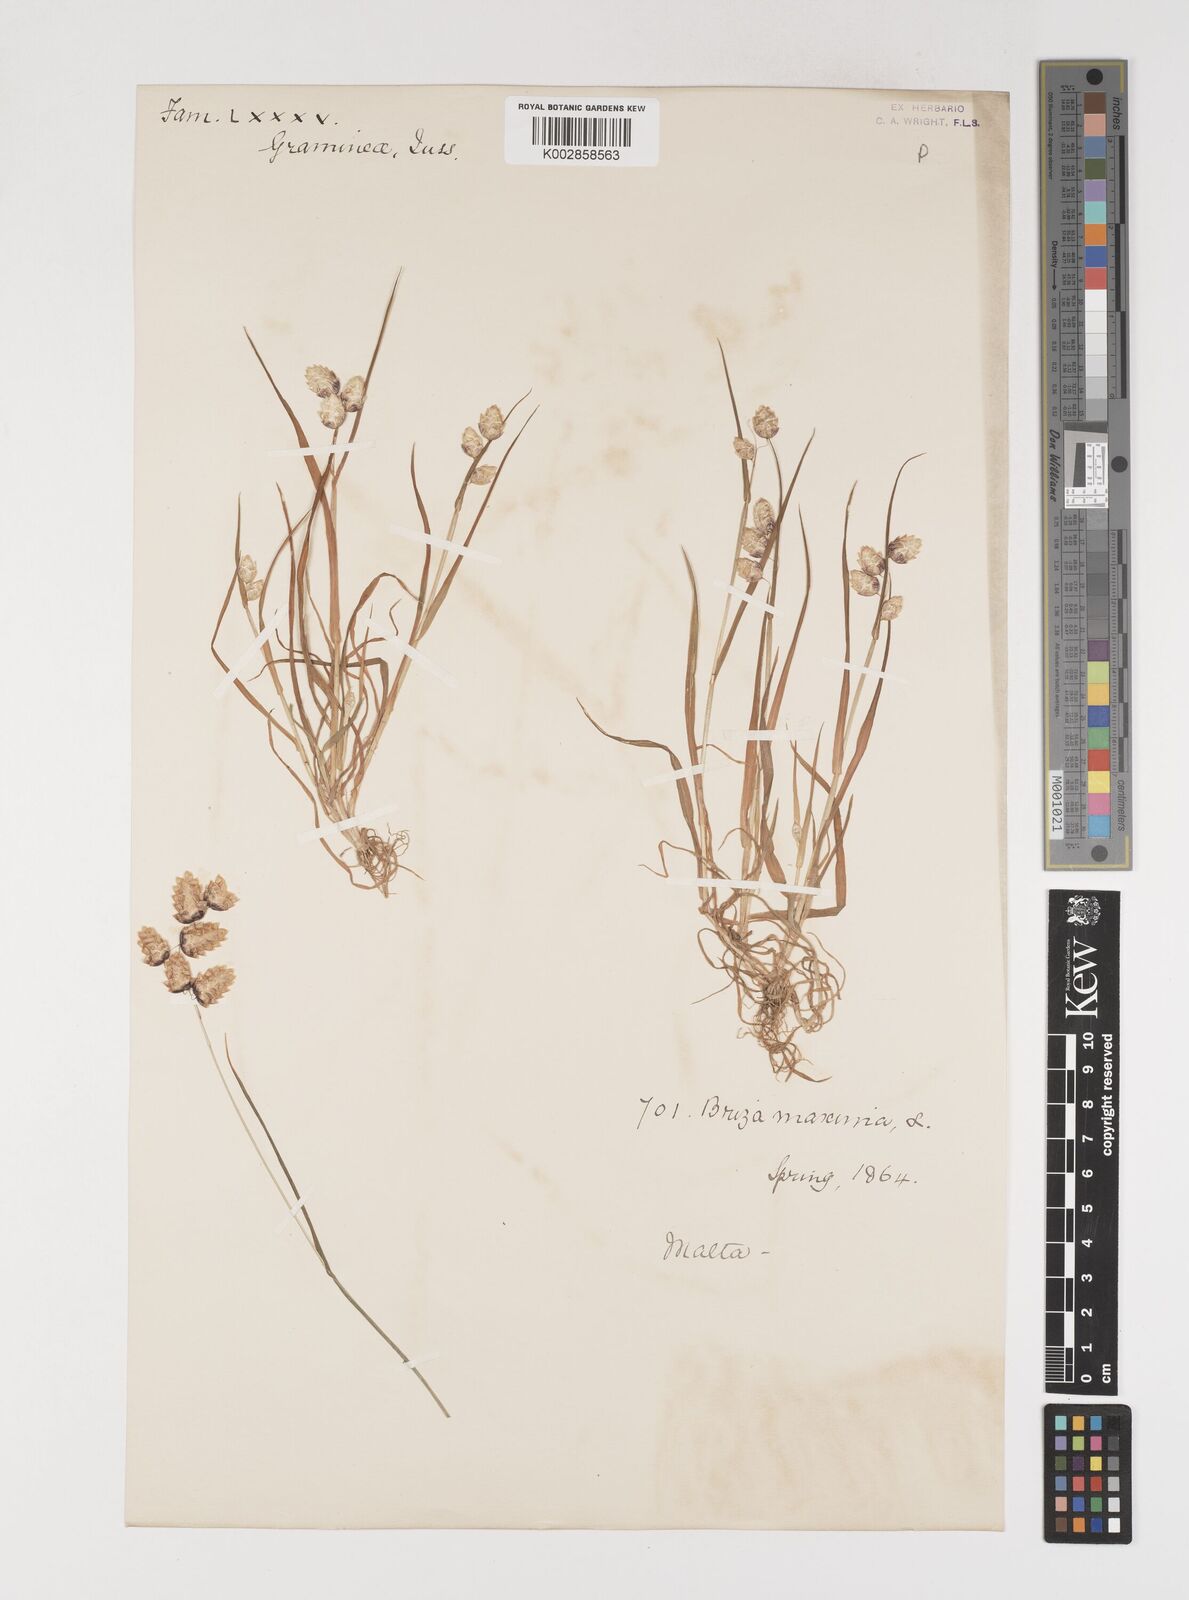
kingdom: Plantae
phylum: Tracheophyta
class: Liliopsida
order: Poales
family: Poaceae
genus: Briza
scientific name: Briza maxima
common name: Big quakinggrass
